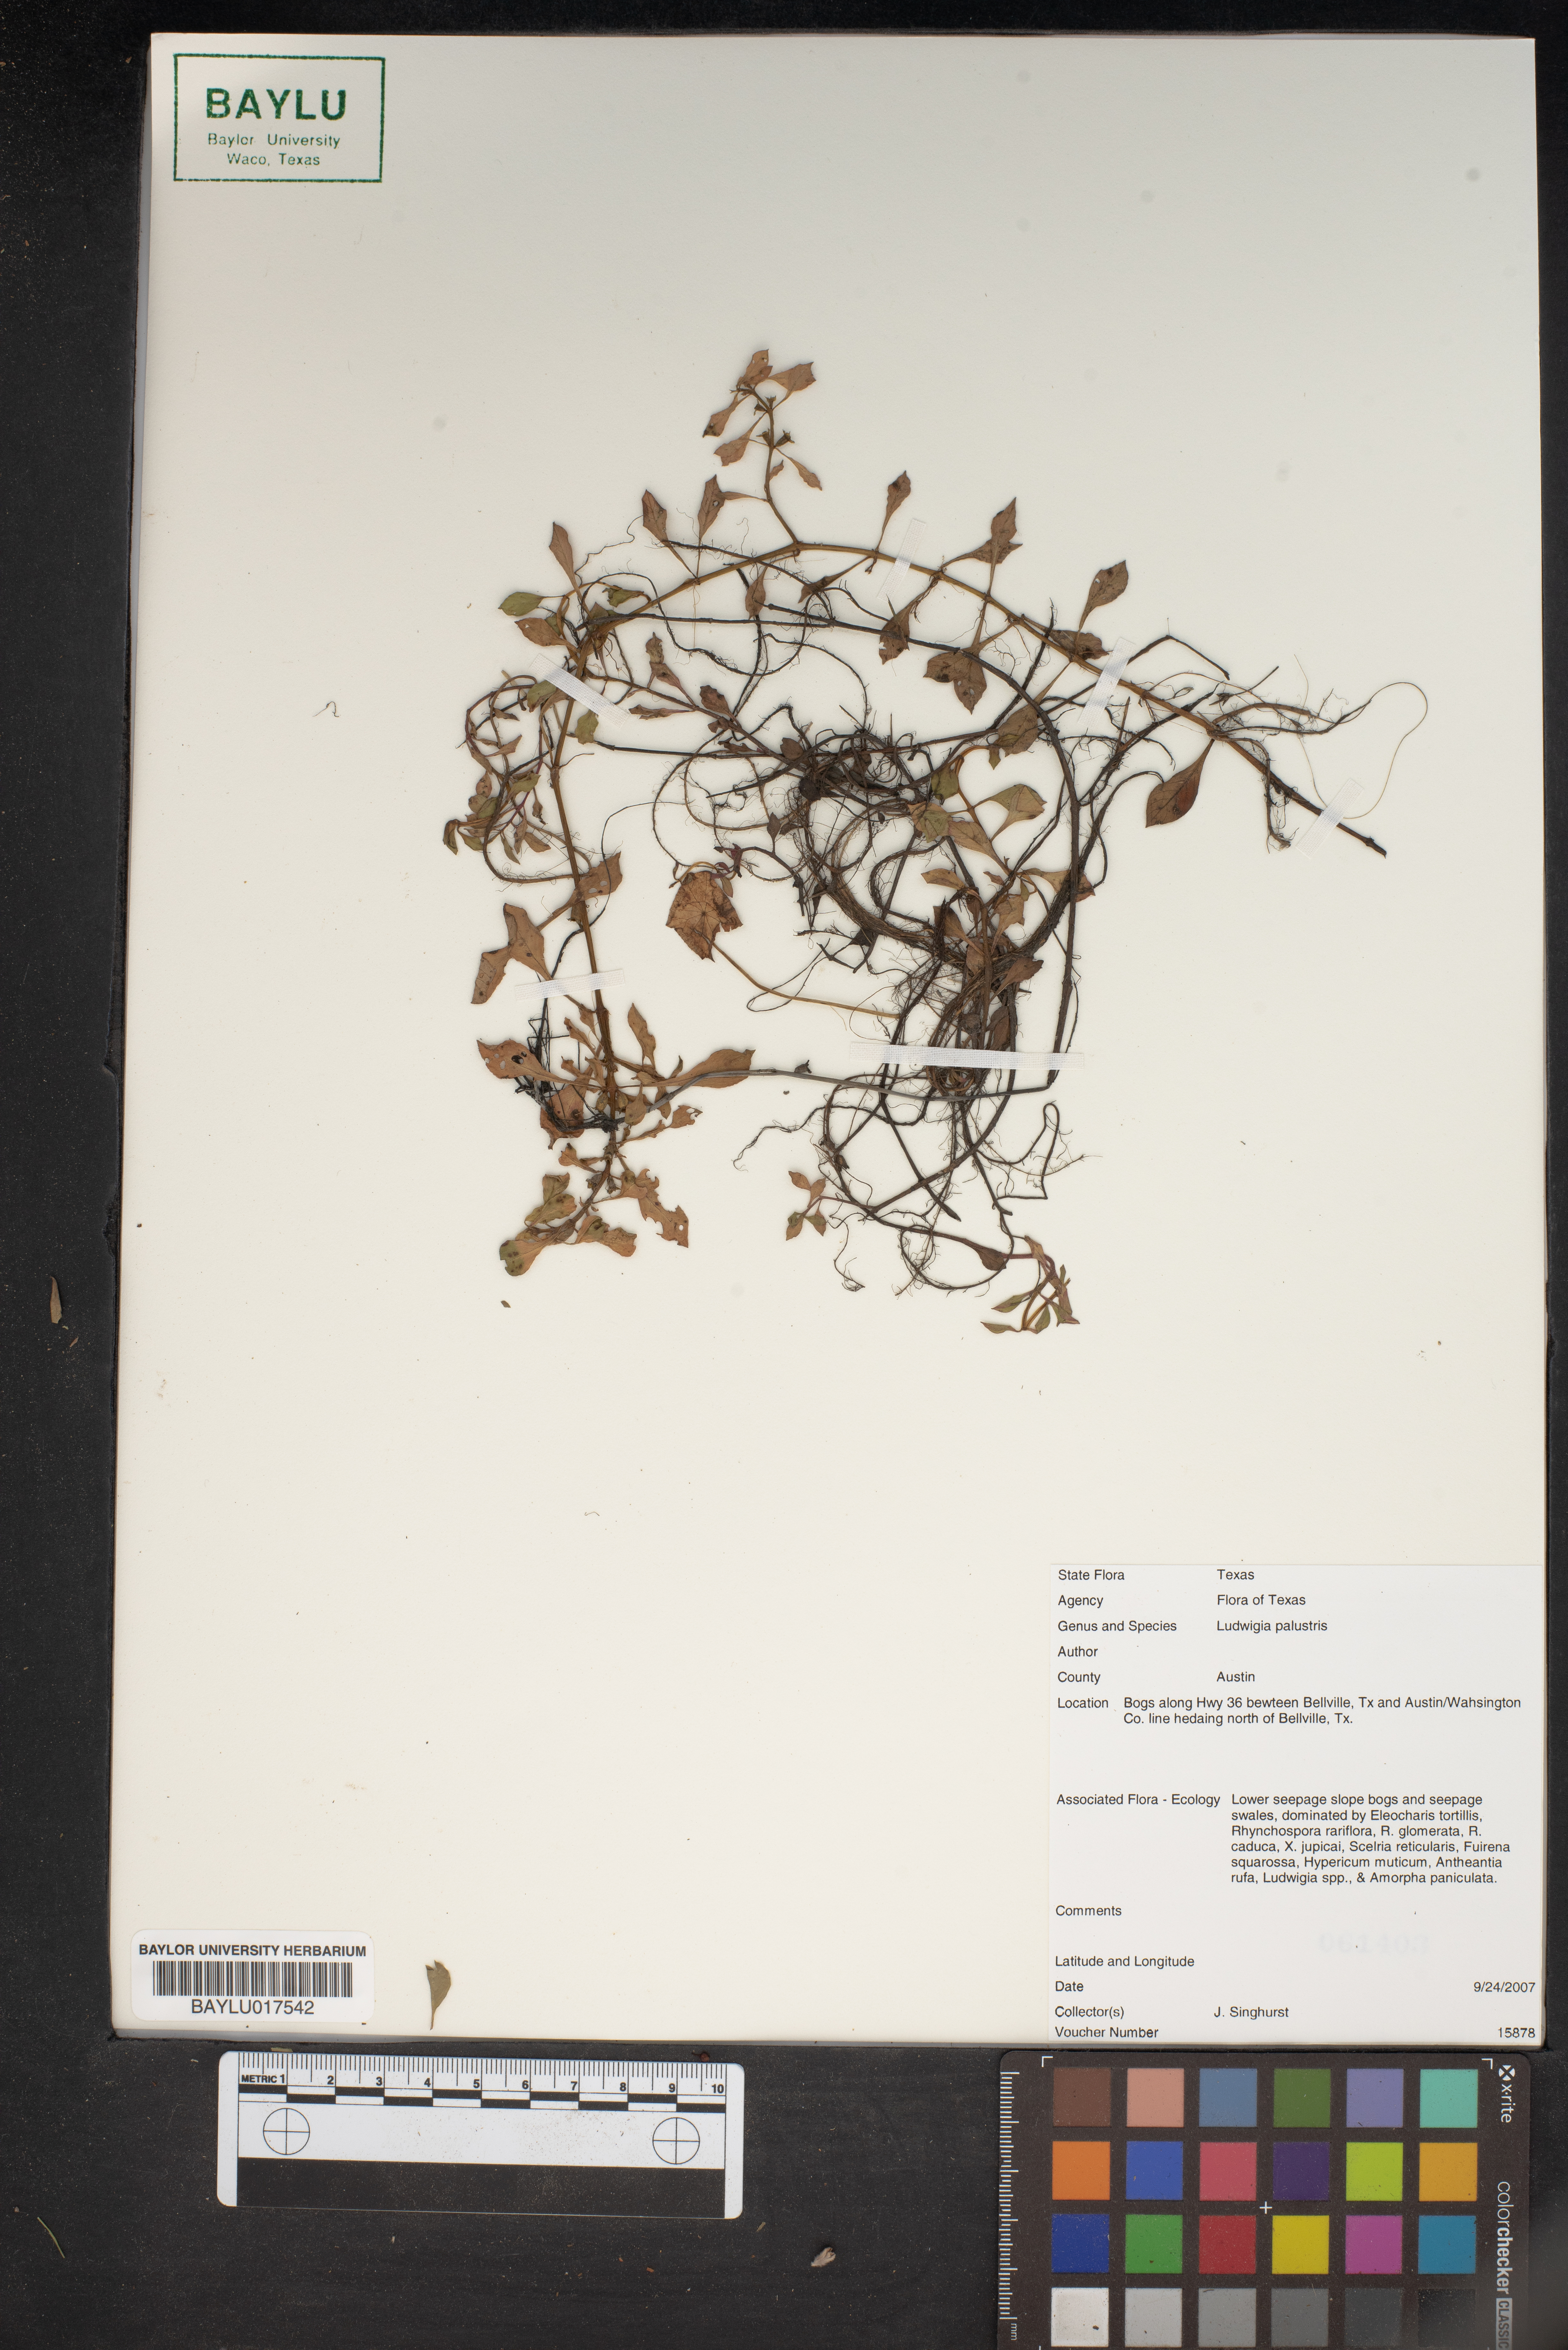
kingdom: Plantae
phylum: Tracheophyta
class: Magnoliopsida
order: Myrtales
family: Onagraceae
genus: Ludwigia
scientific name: Ludwigia palustris
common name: Hampshire-purslane
